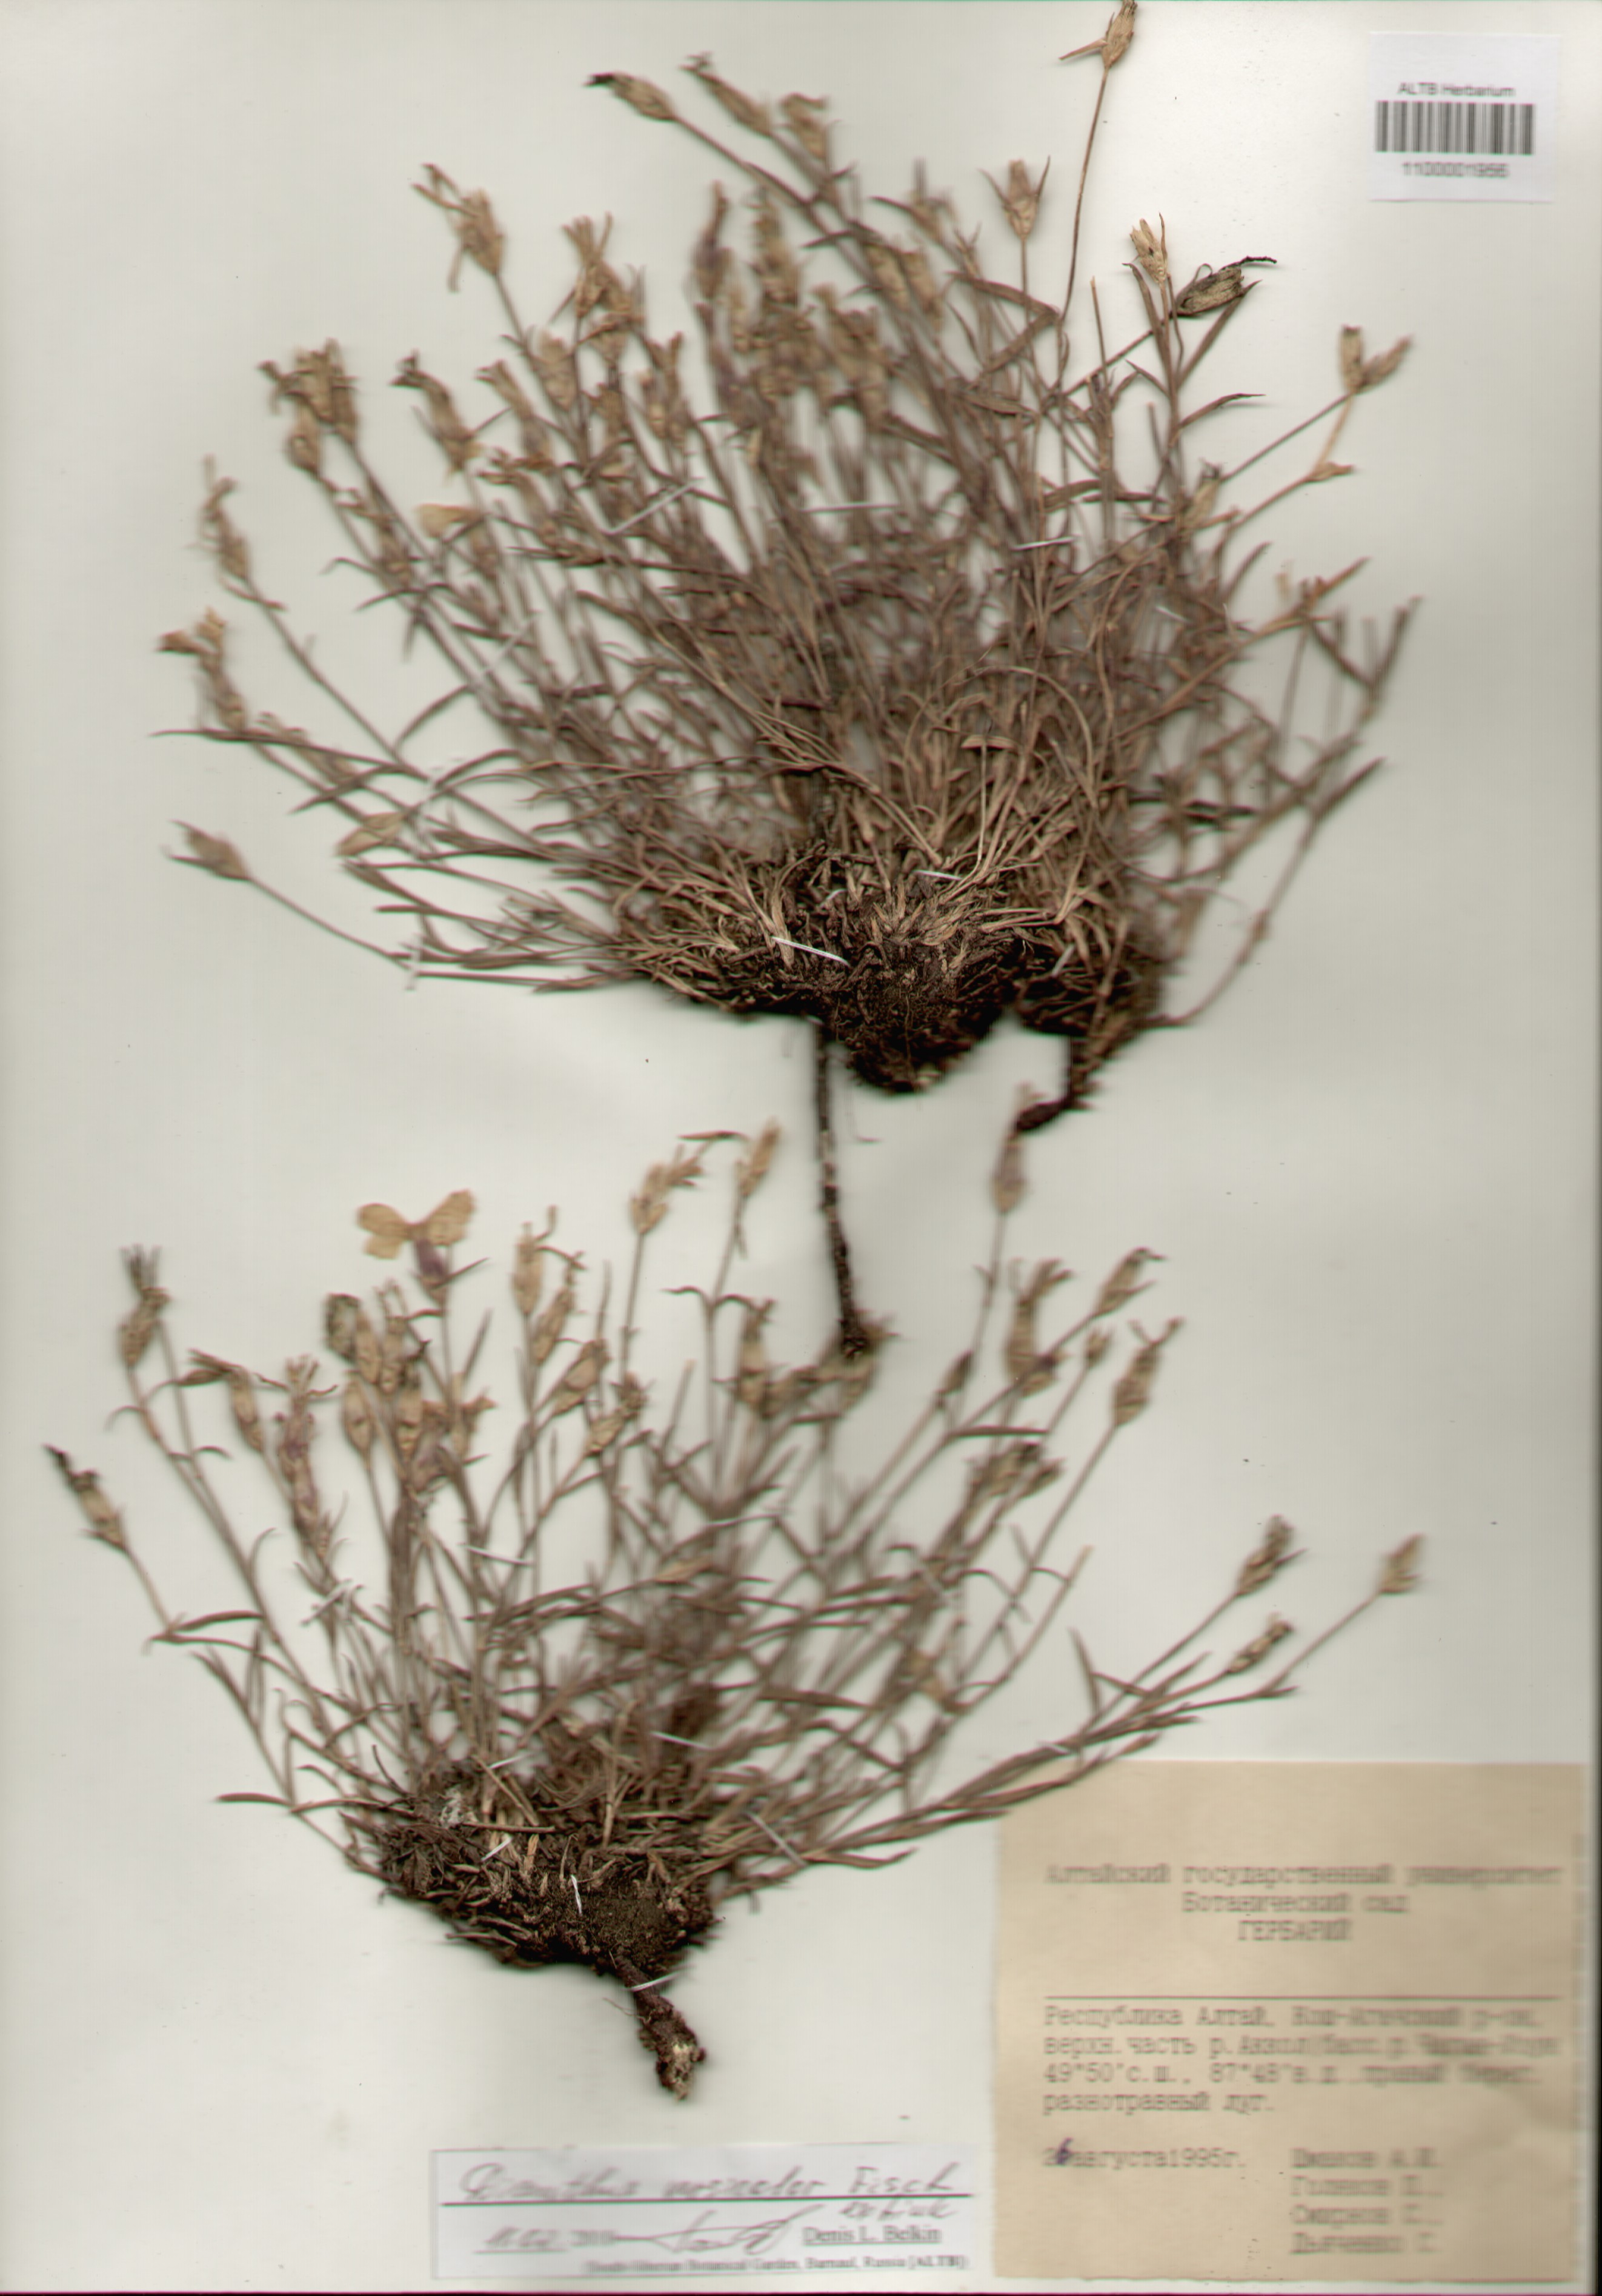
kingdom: Plantae
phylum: Tracheophyta
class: Magnoliopsida
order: Caryophyllales
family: Caryophyllaceae
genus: Dianthus
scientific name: Dianthus chinensis
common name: Rainbow pink
